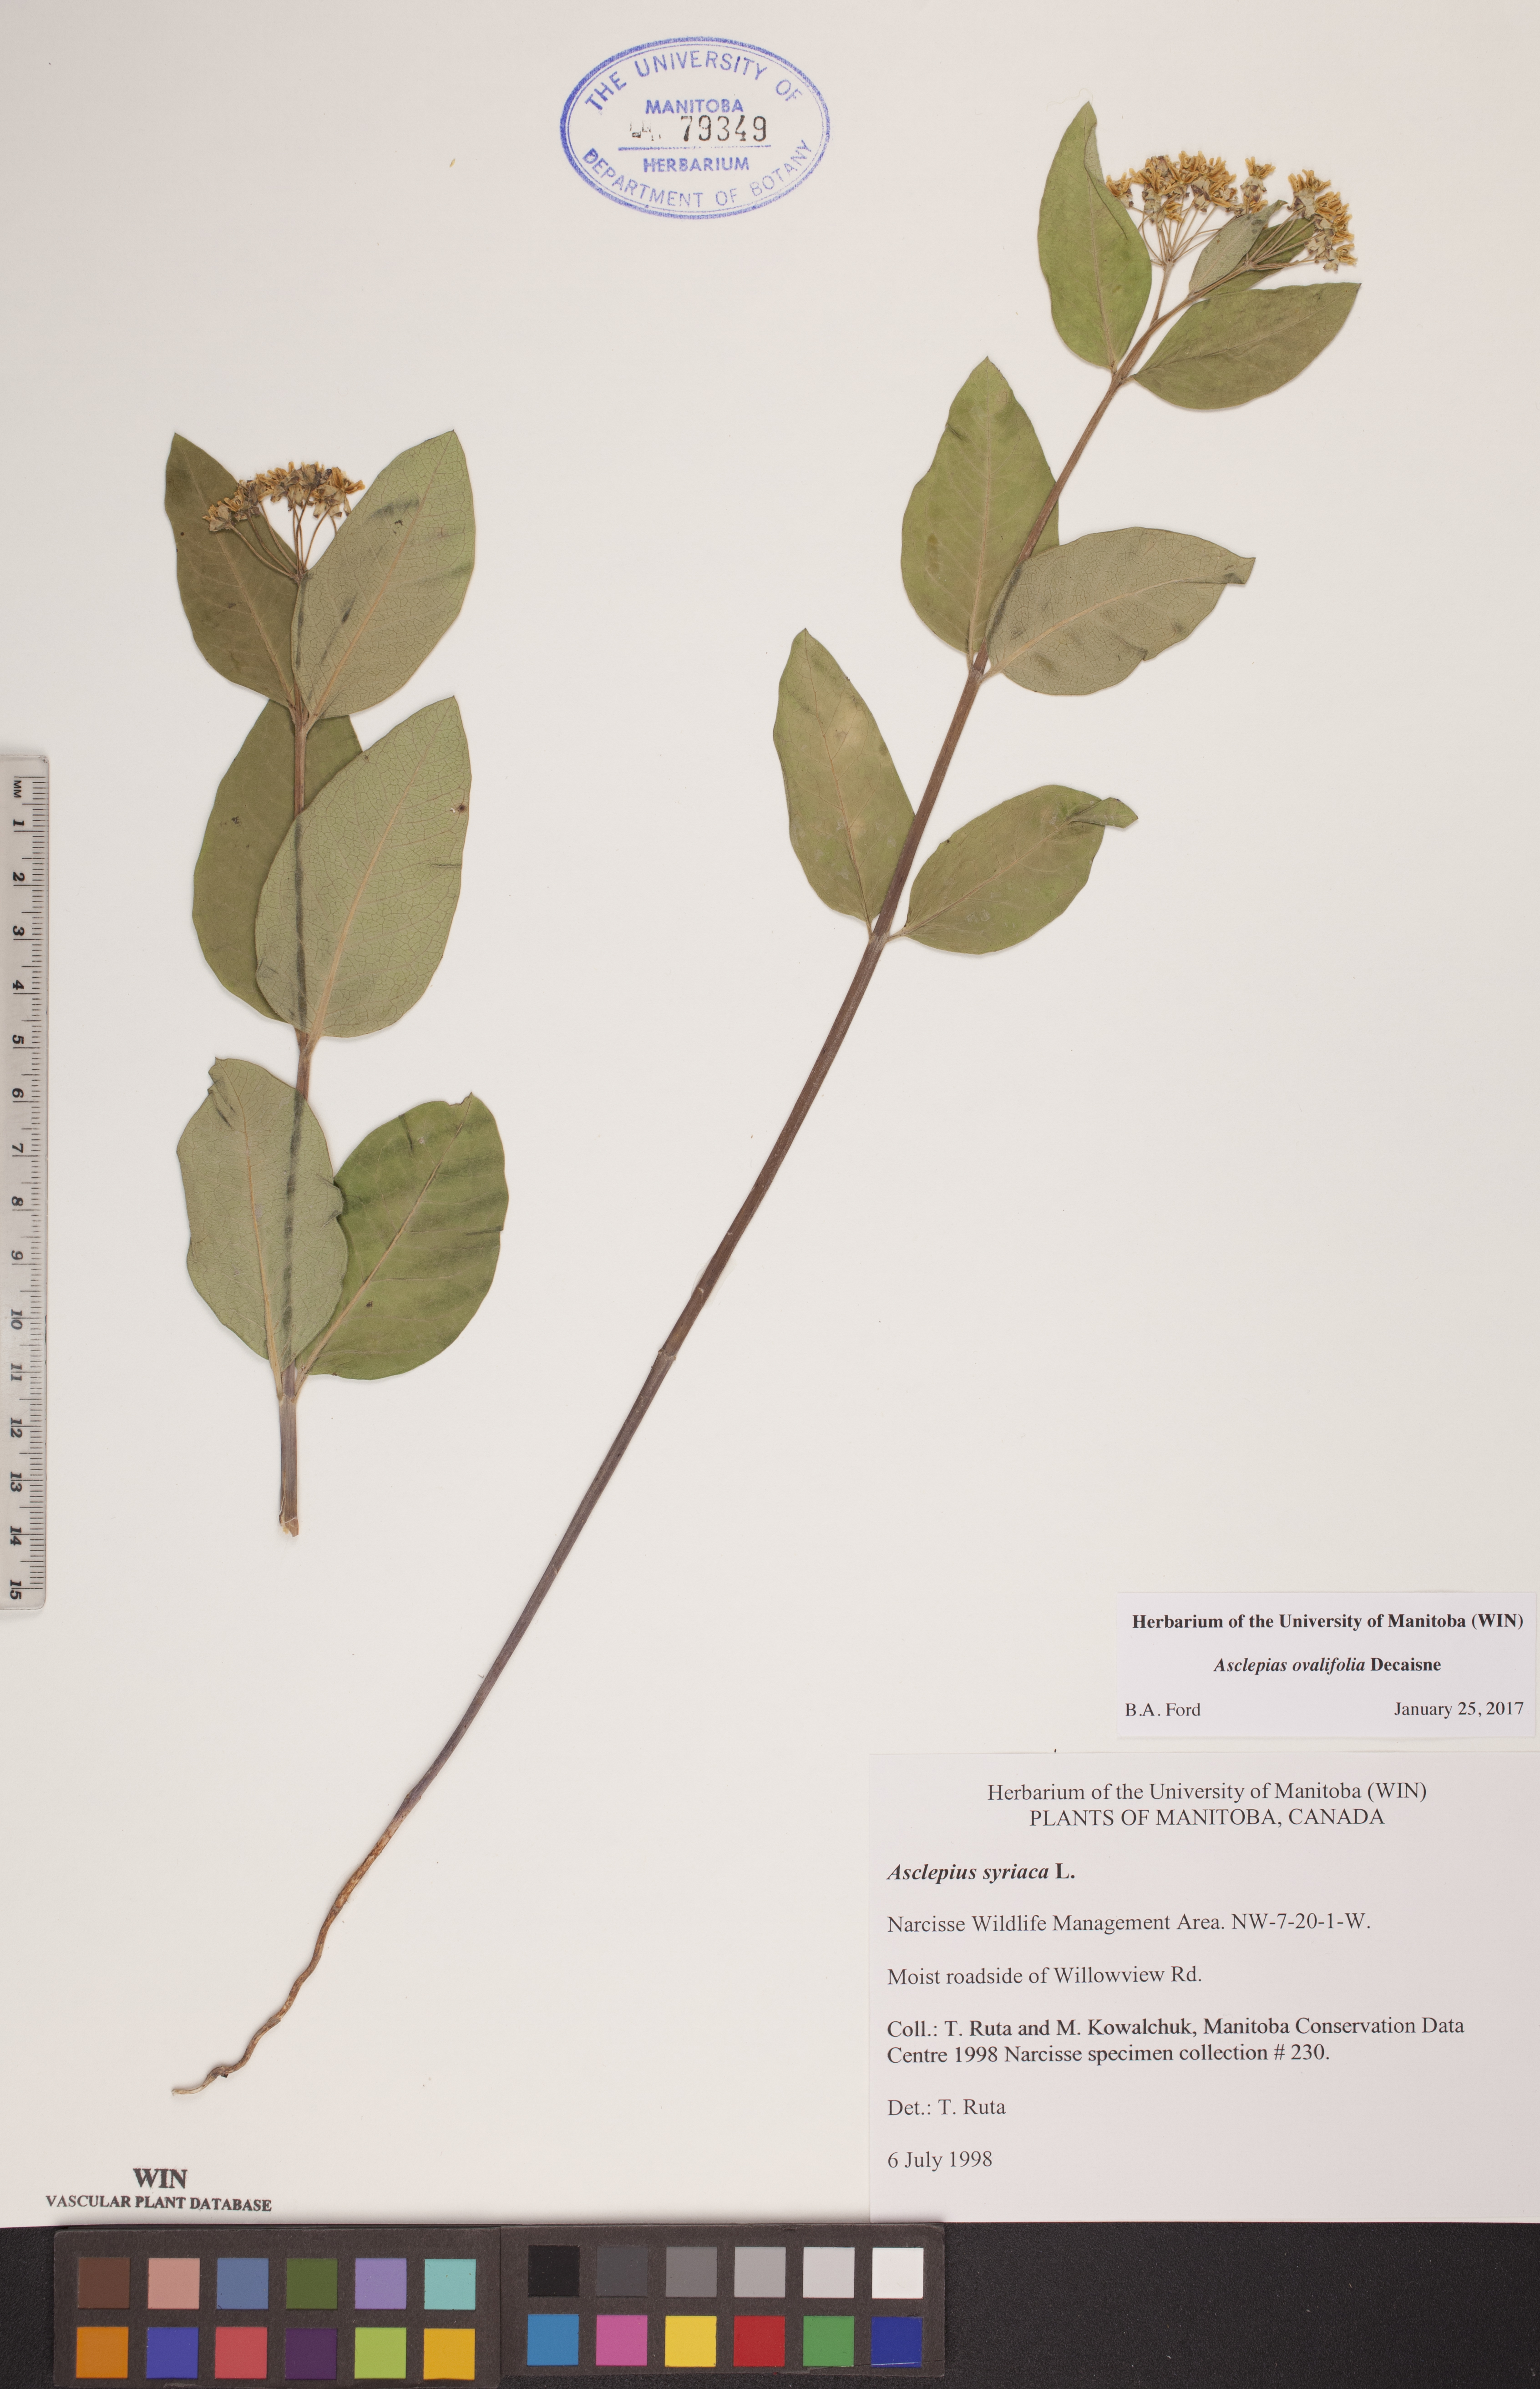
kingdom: Plantae
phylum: Tracheophyta
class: Magnoliopsida
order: Gentianales
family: Apocynaceae
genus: Asclepias
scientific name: Asclepias ovalifolia
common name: Dwarf milkweed
